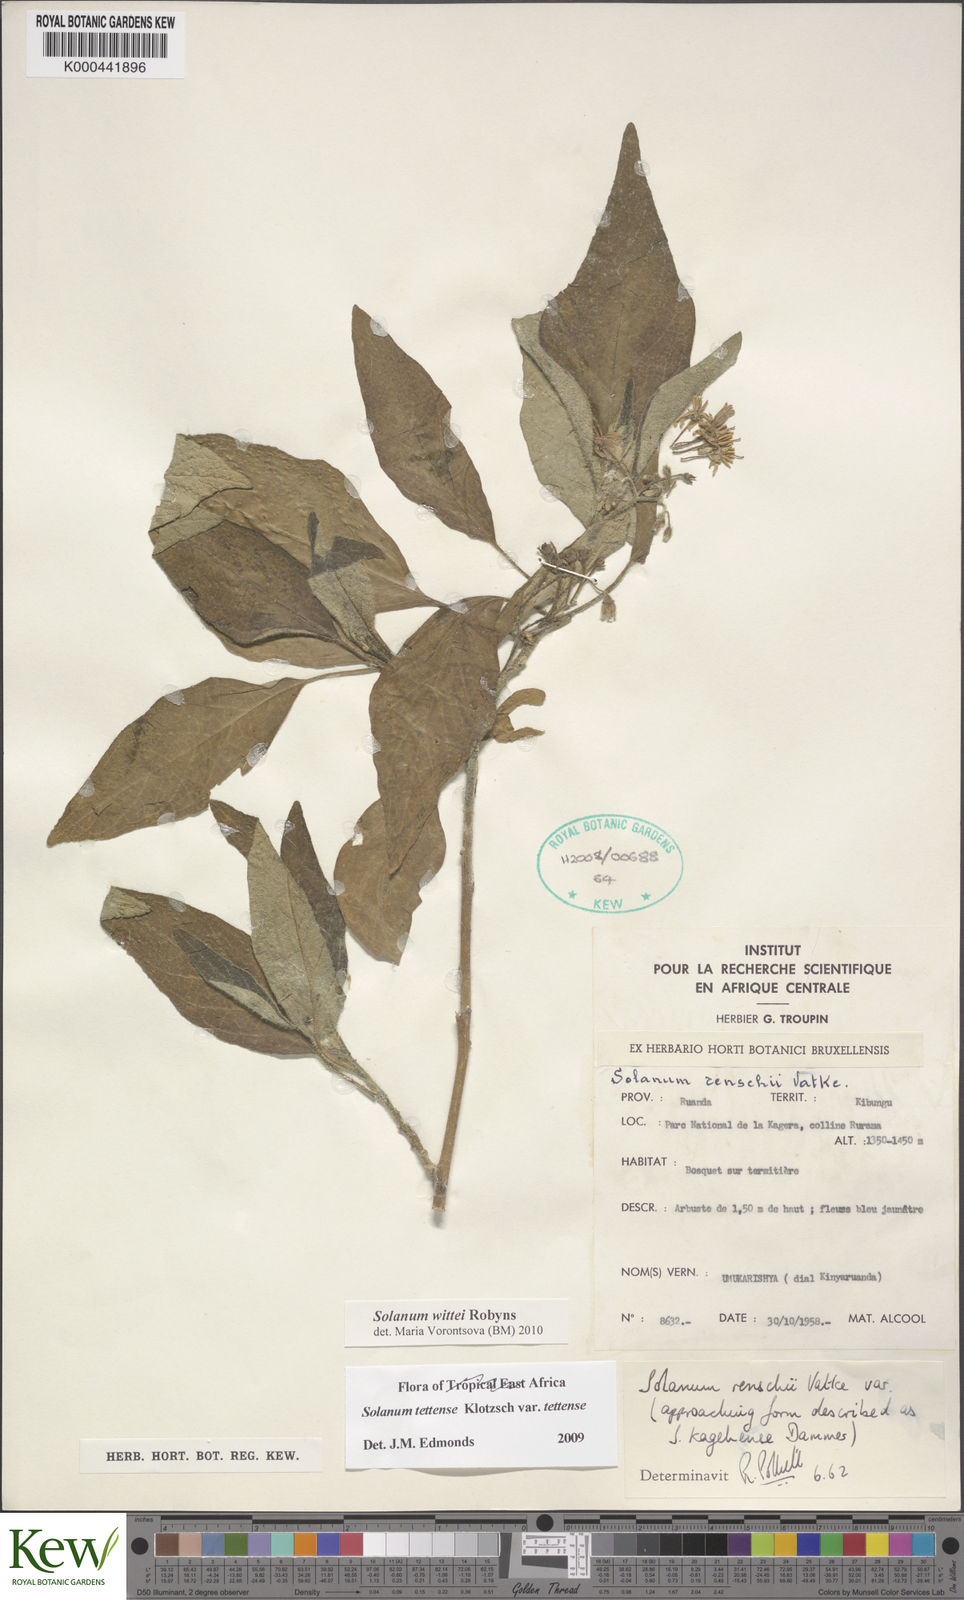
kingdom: Plantae
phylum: Tracheophyta
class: Magnoliopsida
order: Solanales
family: Solanaceae
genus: Solanum
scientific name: Solanum wittei
